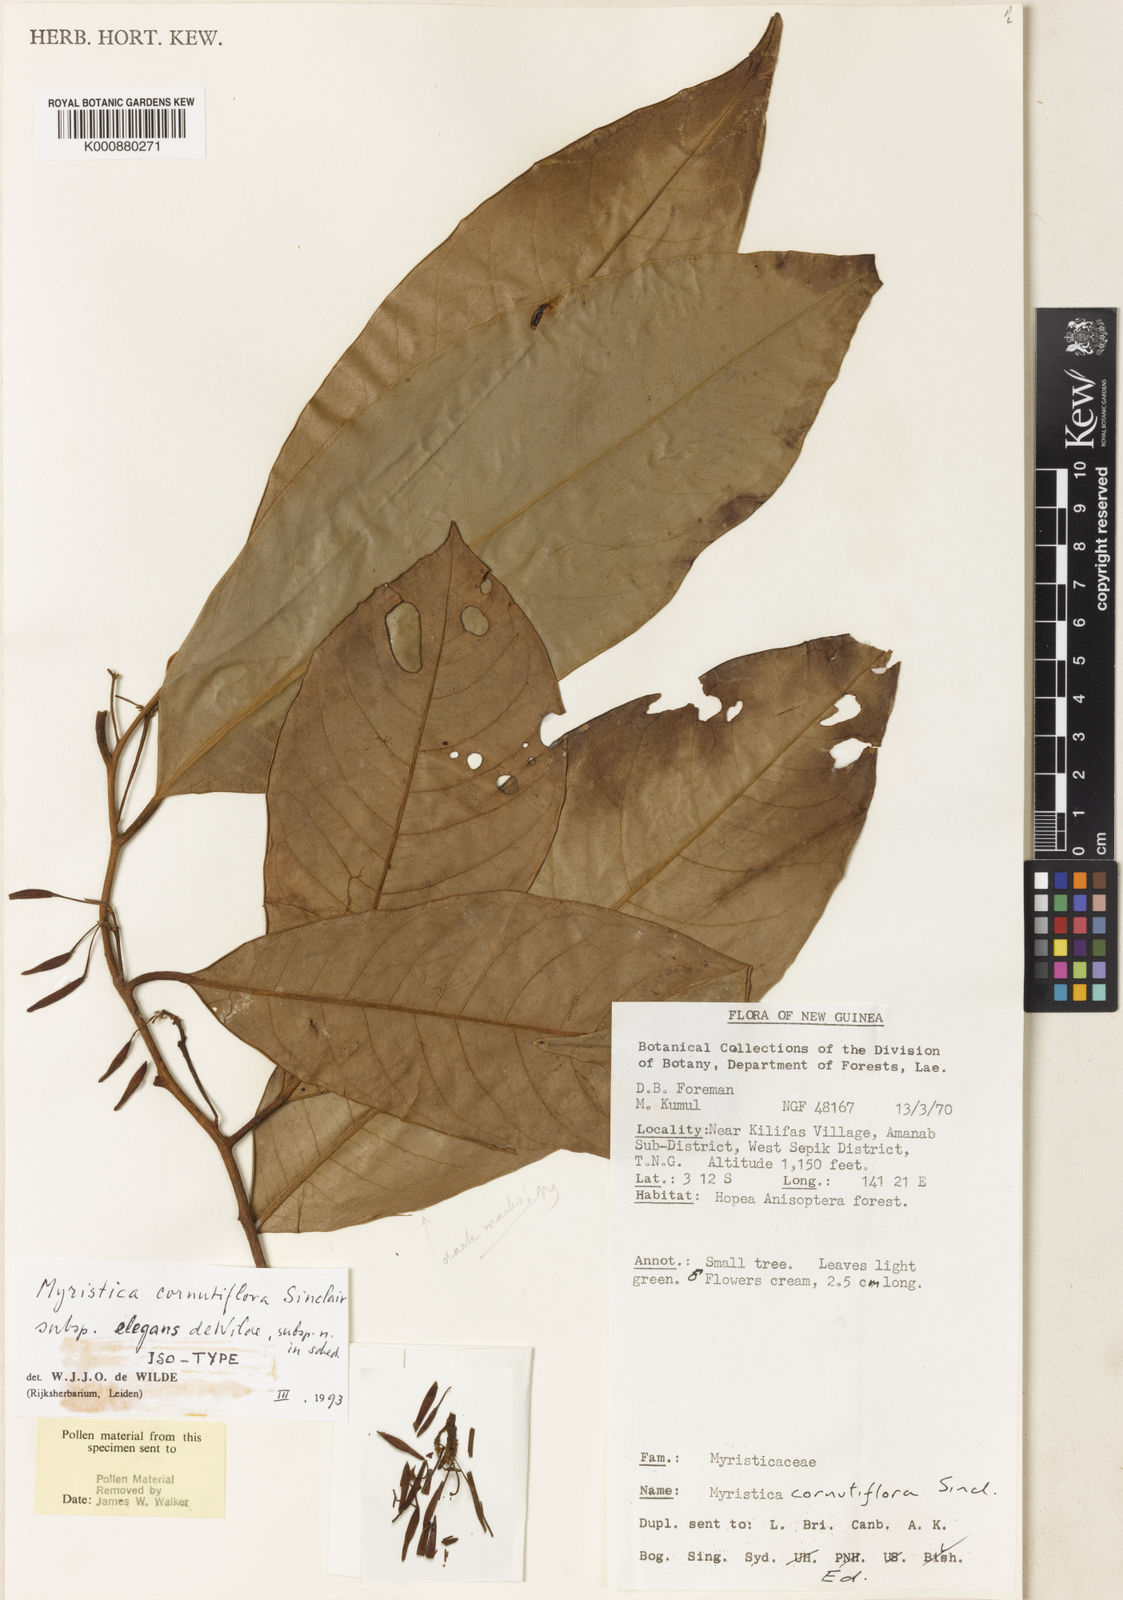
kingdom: Plantae
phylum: Tracheophyta
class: Magnoliopsida
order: Magnoliales
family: Myristicaceae
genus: Myristica
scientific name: Myristica cornutiflora
